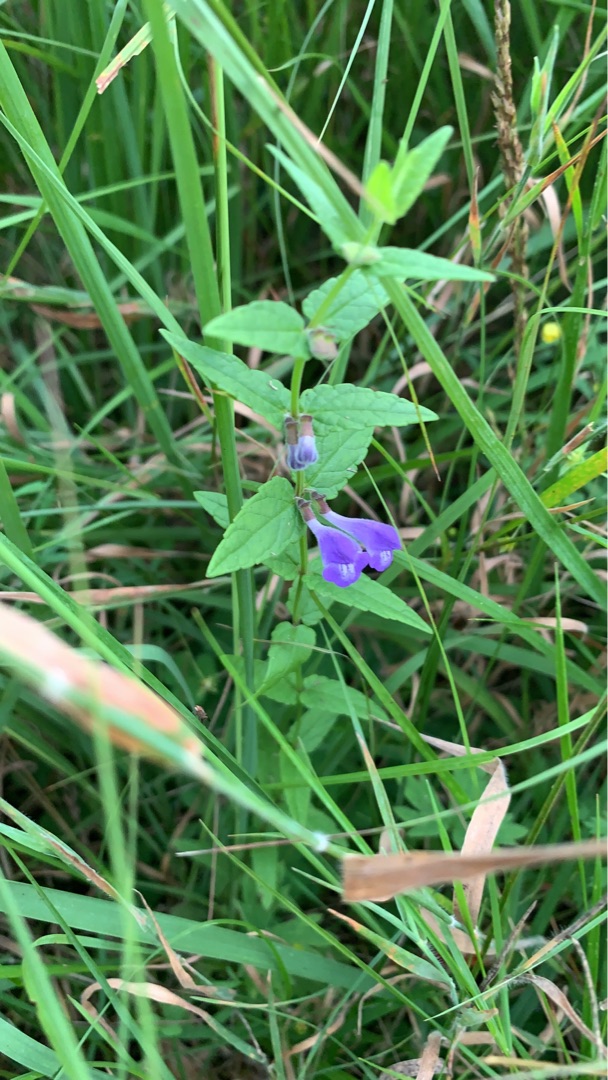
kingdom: Plantae
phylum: Tracheophyta
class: Magnoliopsida
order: Lamiales
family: Lamiaceae
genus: Scutellaria
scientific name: Scutellaria galericulata
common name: Almindelig skjolddrager
